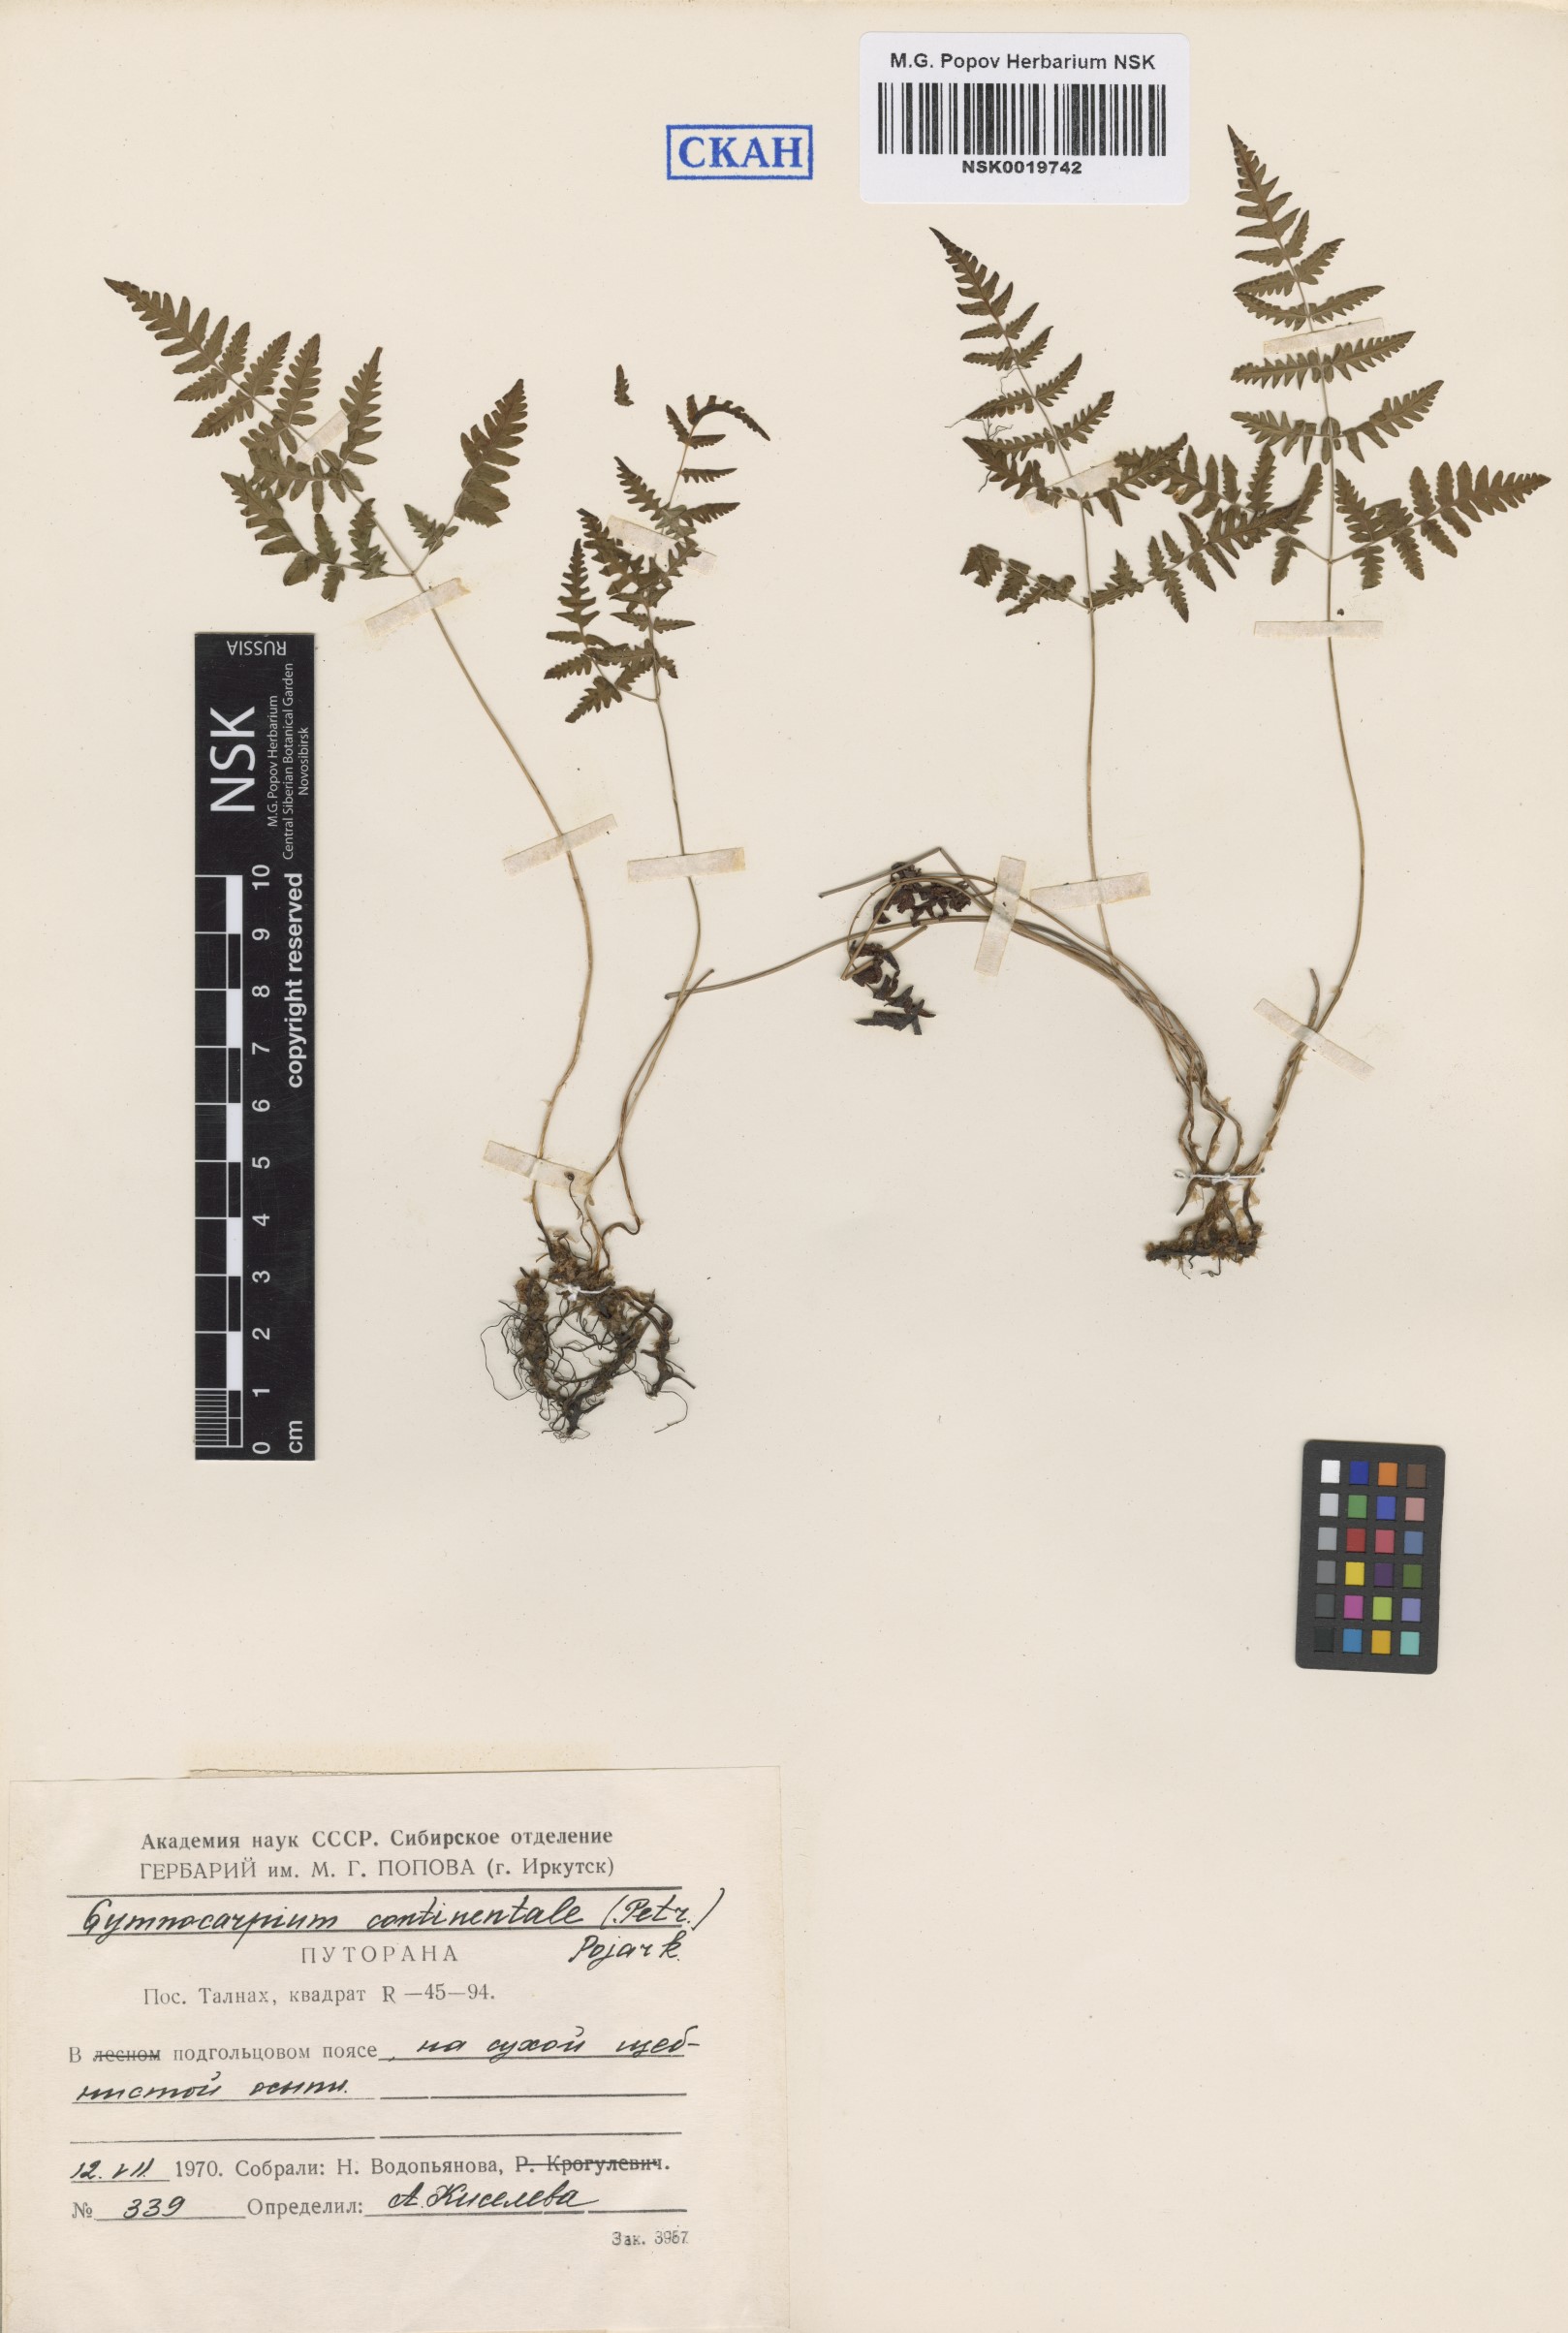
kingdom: Plantae
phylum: Tracheophyta
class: Polypodiopsida
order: Polypodiales
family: Cystopteridaceae
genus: Gymnocarpium
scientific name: Gymnocarpium continentale
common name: Asian oak fern
